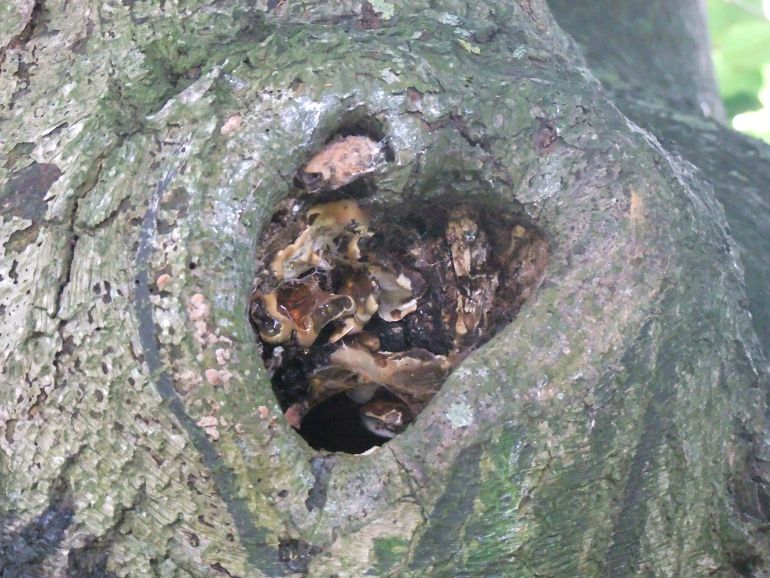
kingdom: Fungi
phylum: Basidiomycota
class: Agaricomycetes
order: Hymenochaetales
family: Hymenochaetaceae
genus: Inonotus
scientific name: Inonotus cuticularis
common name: kroghåret spejlporesvamp
